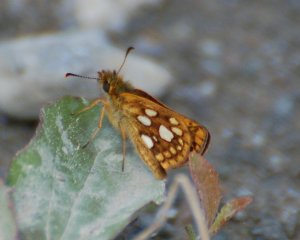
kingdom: Animalia
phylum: Arthropoda
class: Insecta
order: Lepidoptera
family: Hesperiidae
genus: Carterocephalus
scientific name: Carterocephalus palaemon
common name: Chequered Skipper
